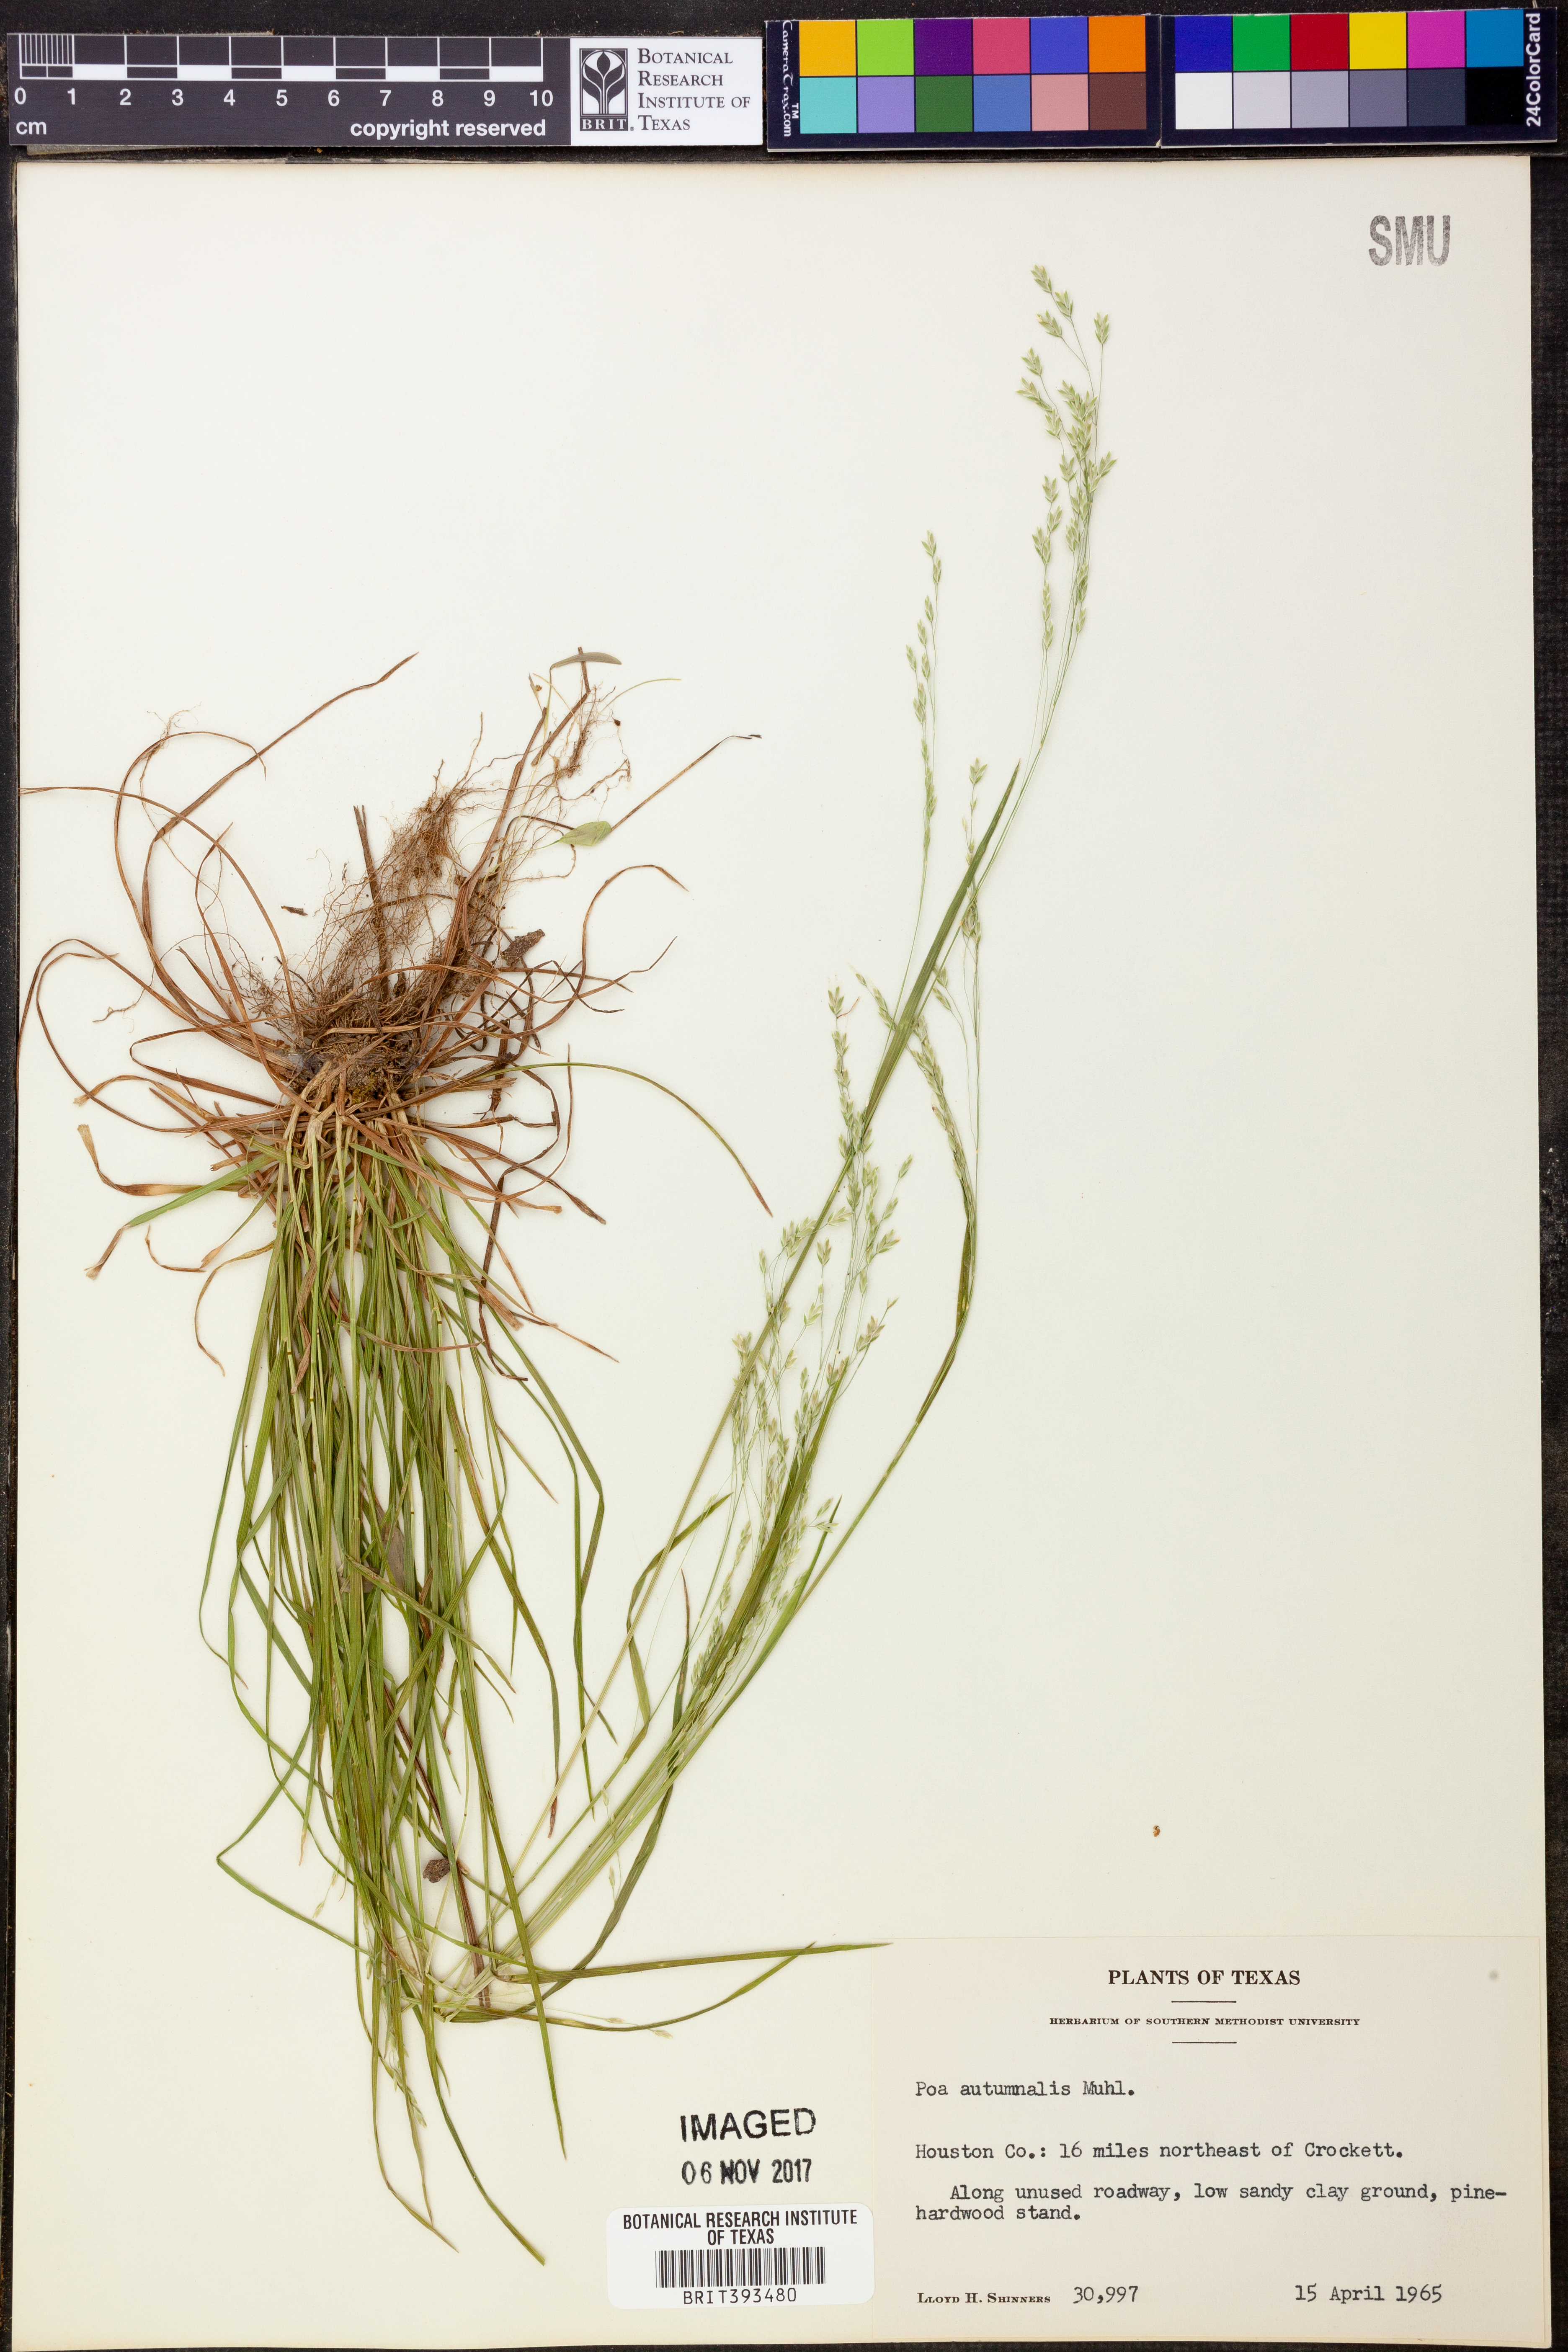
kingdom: Plantae
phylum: Tracheophyta
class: Liliopsida
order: Poales
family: Poaceae
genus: Poa
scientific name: Poa autumnalis
